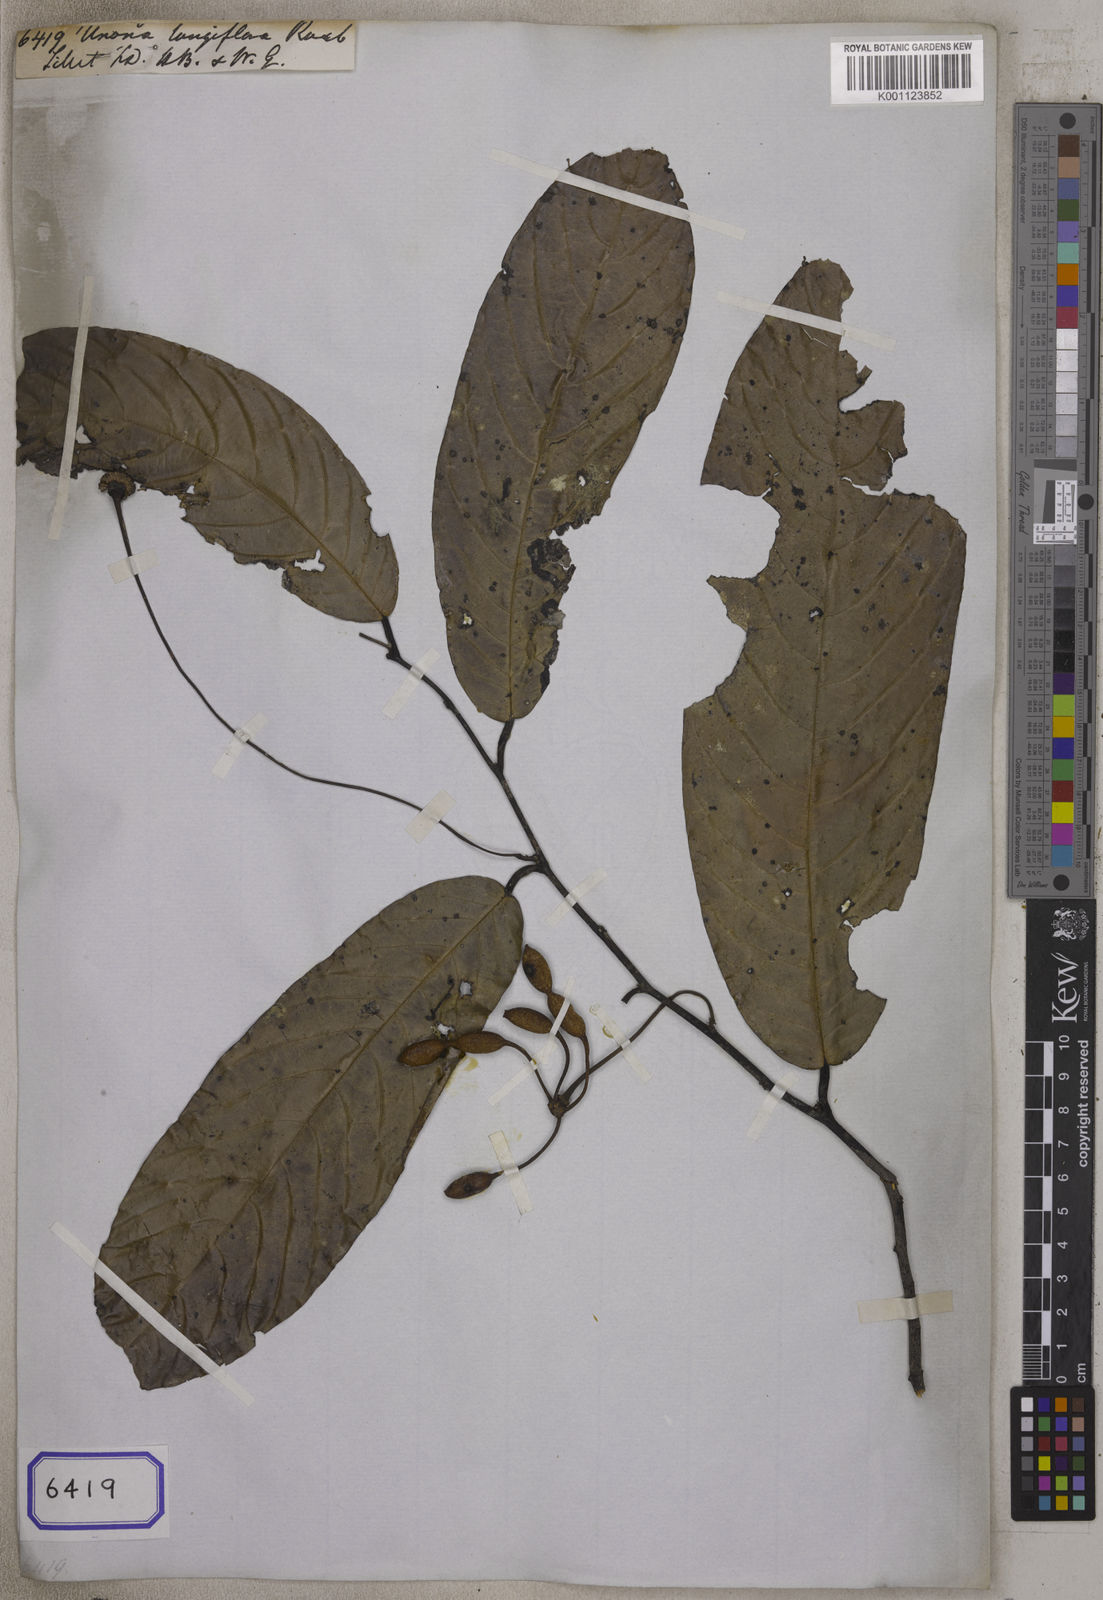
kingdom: Plantae
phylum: Tracheophyta
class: Magnoliopsida
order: Magnoliales
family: Annonaceae
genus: Dasymaschalon
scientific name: Dasymaschalon longiflorum
